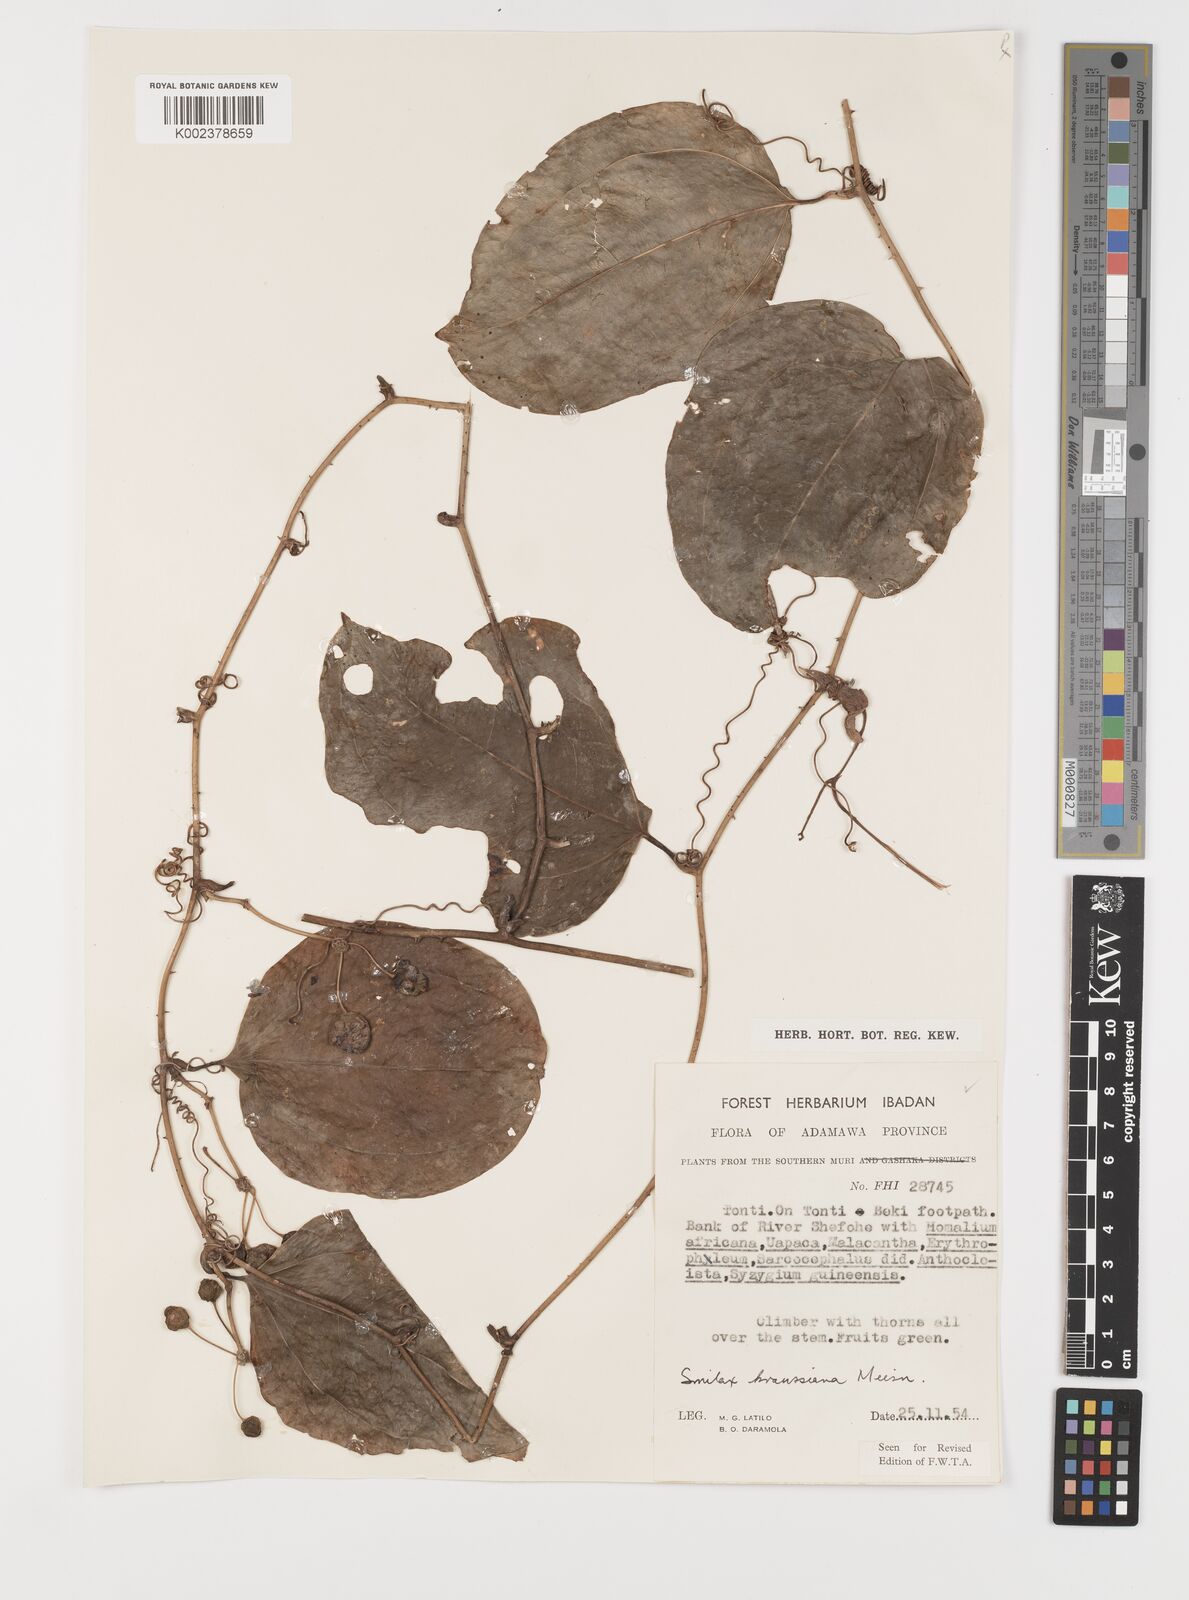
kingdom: Plantae
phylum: Tracheophyta
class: Liliopsida
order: Liliales
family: Smilacaceae
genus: Smilax
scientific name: Smilax anceps
